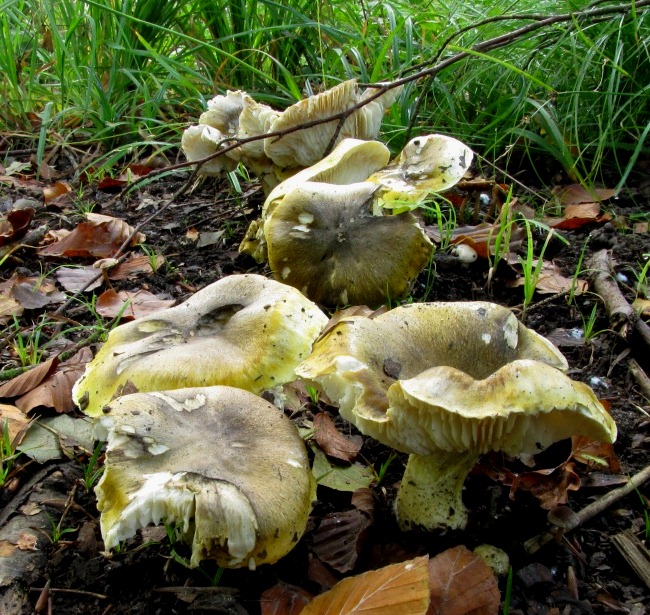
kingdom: Fungi
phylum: Basidiomycota
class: Agaricomycetes
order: Agaricales
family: Tricholomataceae
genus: Tricholoma
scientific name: Tricholoma sejunctum
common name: grøngul ridderhat
